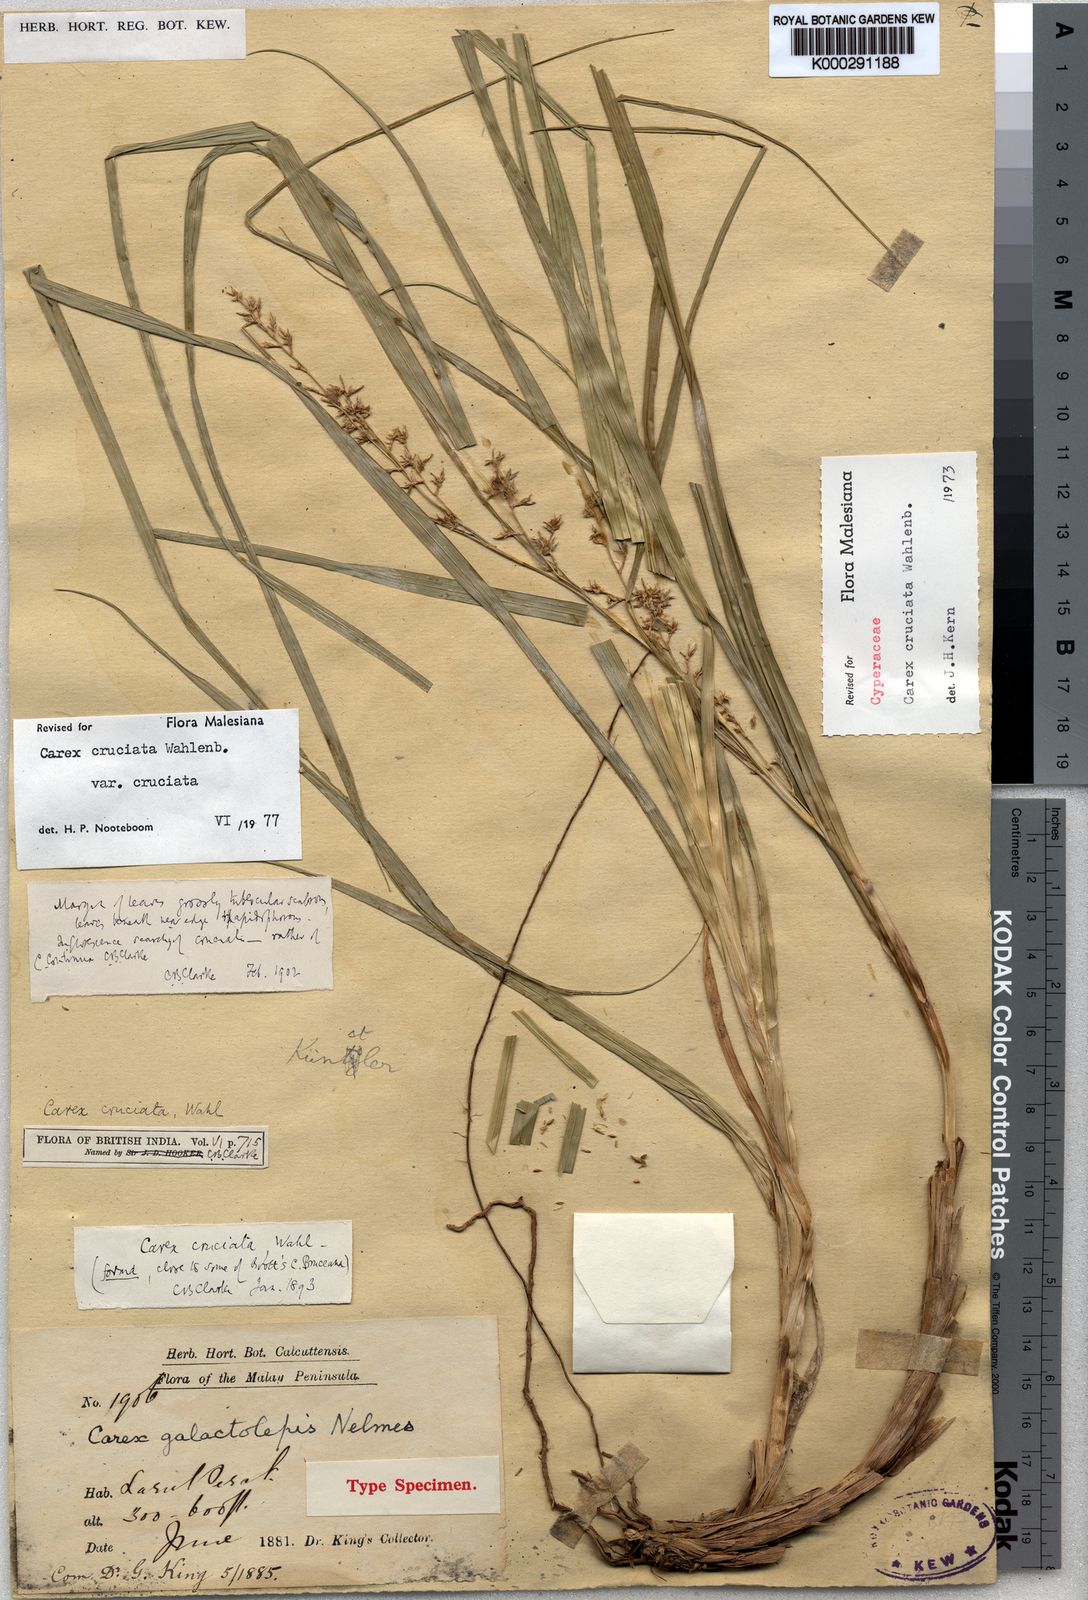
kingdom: Plantae
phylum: Tracheophyta
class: Liliopsida
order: Poales
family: Cyperaceae
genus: Carex
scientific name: Carex cruciata
